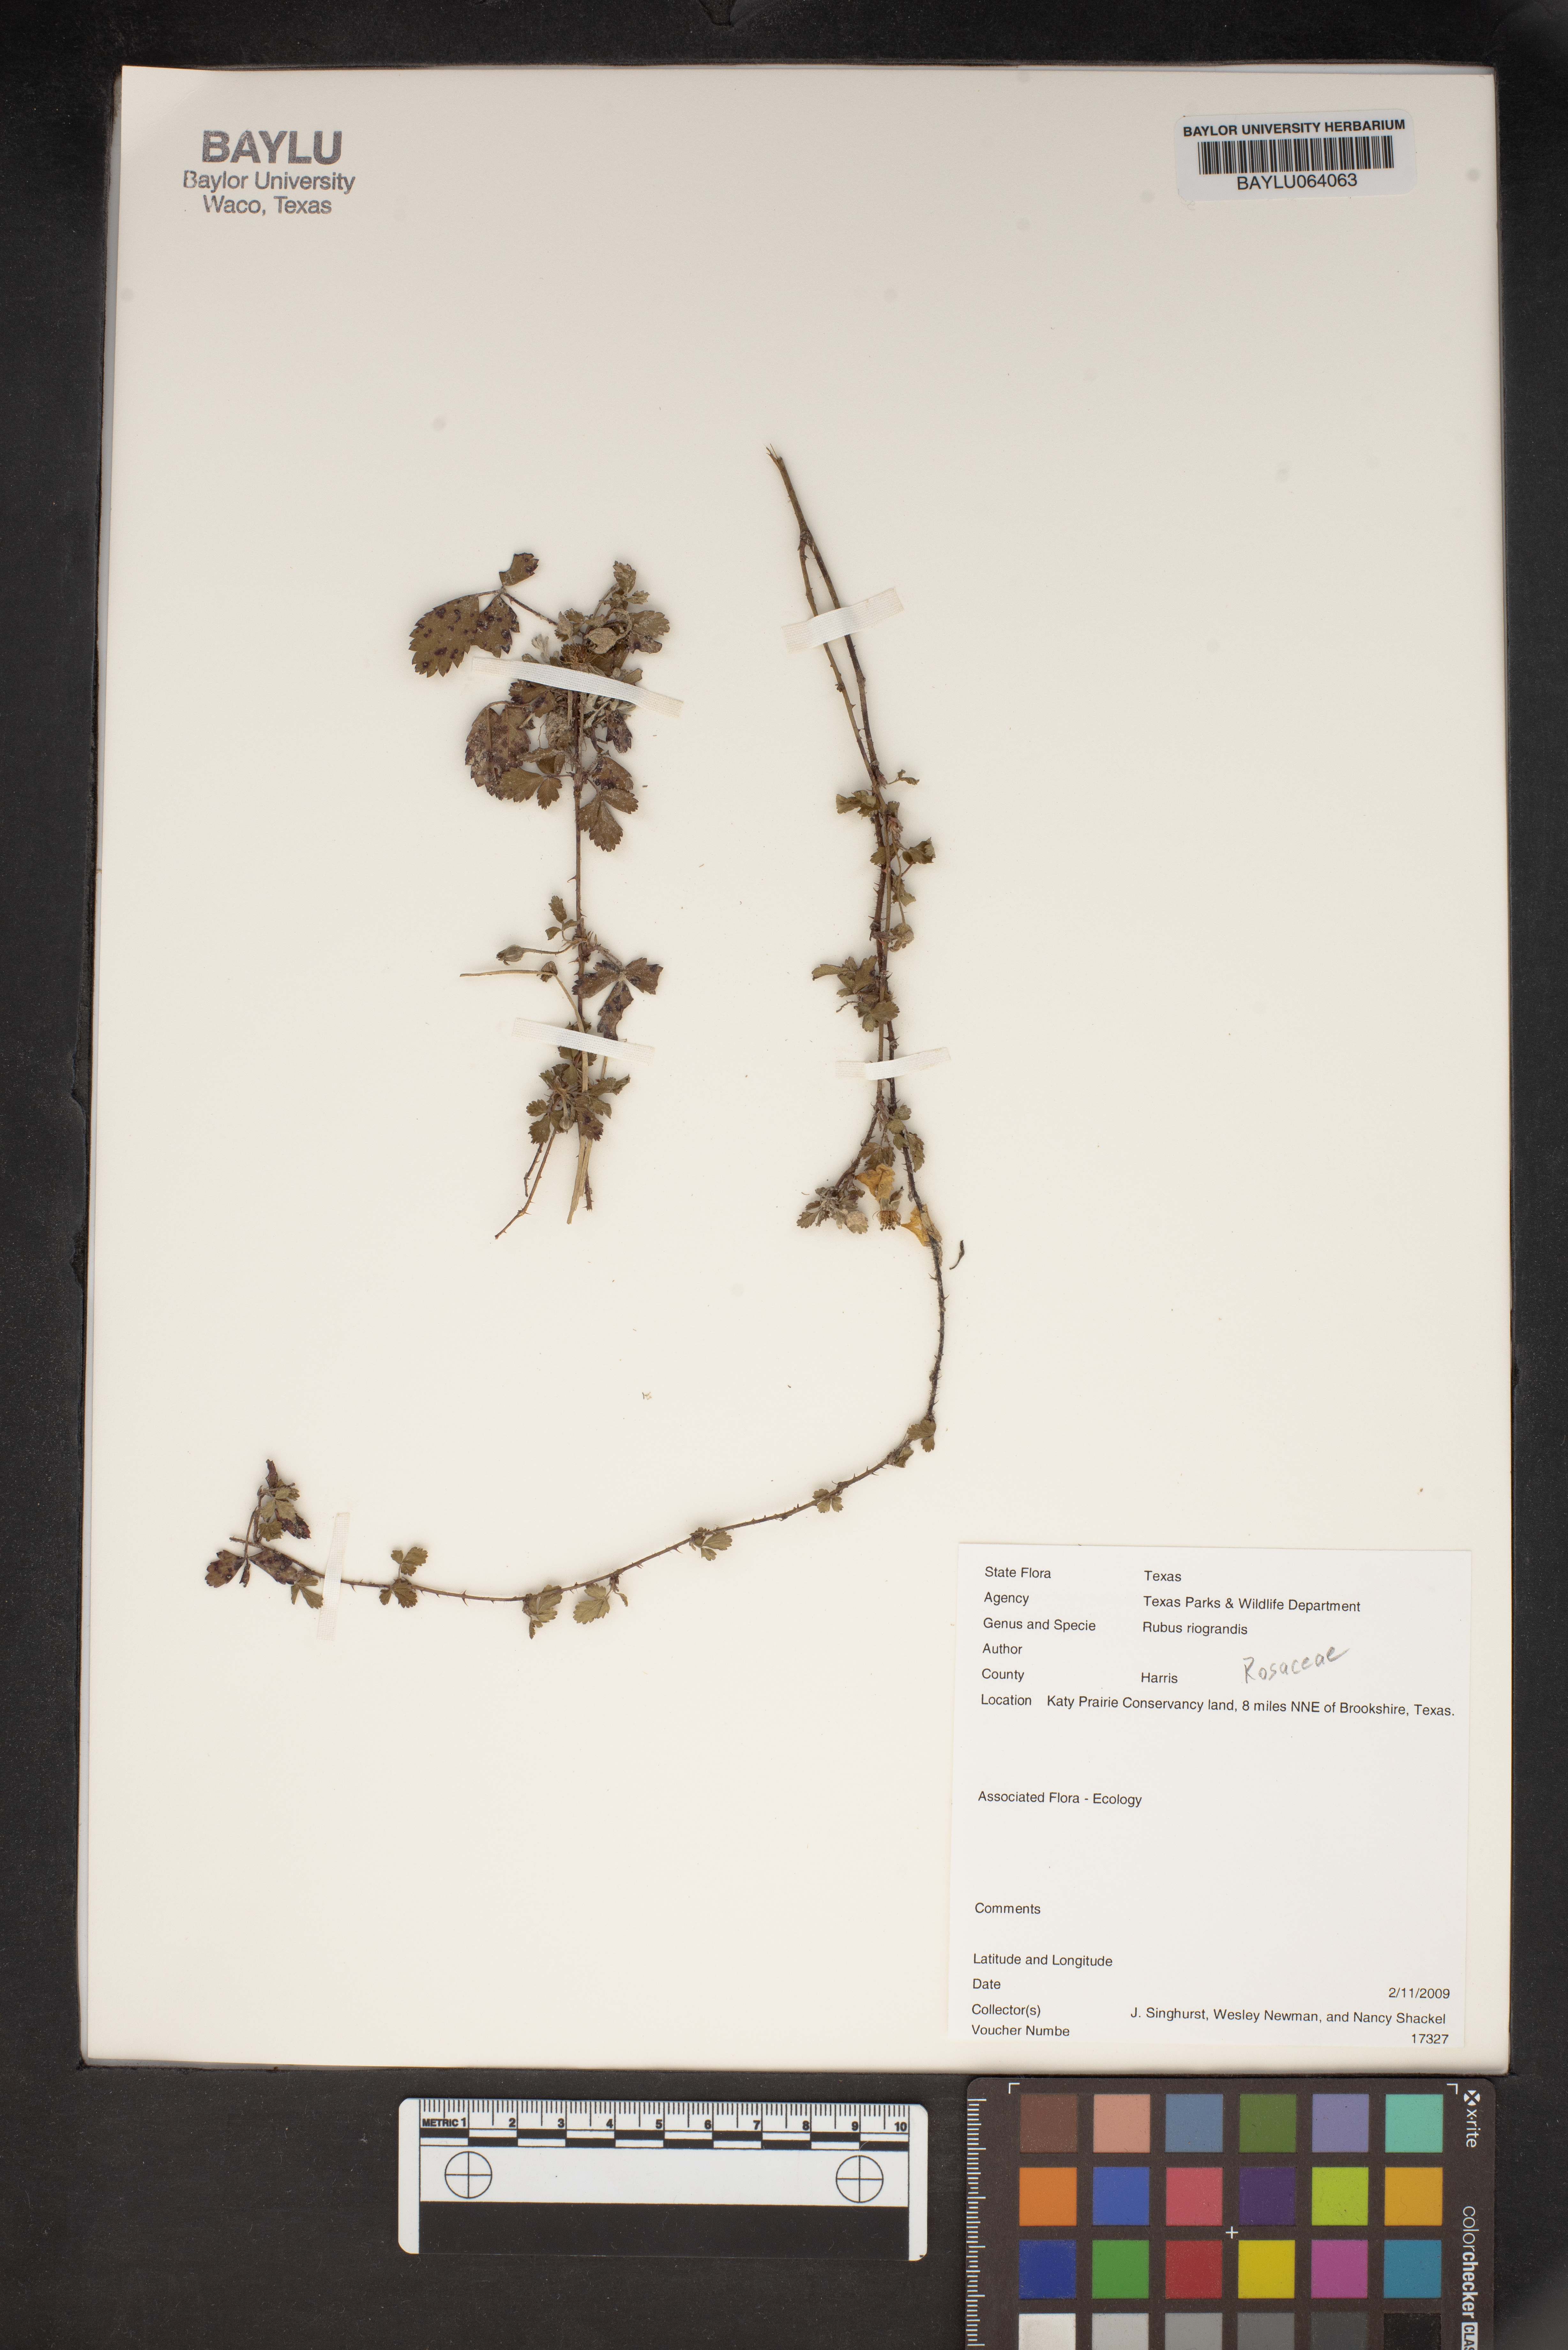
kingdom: Plantae
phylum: Tracheophyta
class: Magnoliopsida
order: Rosales
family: Rosaceae
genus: Rubus
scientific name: Rubus riograndis
